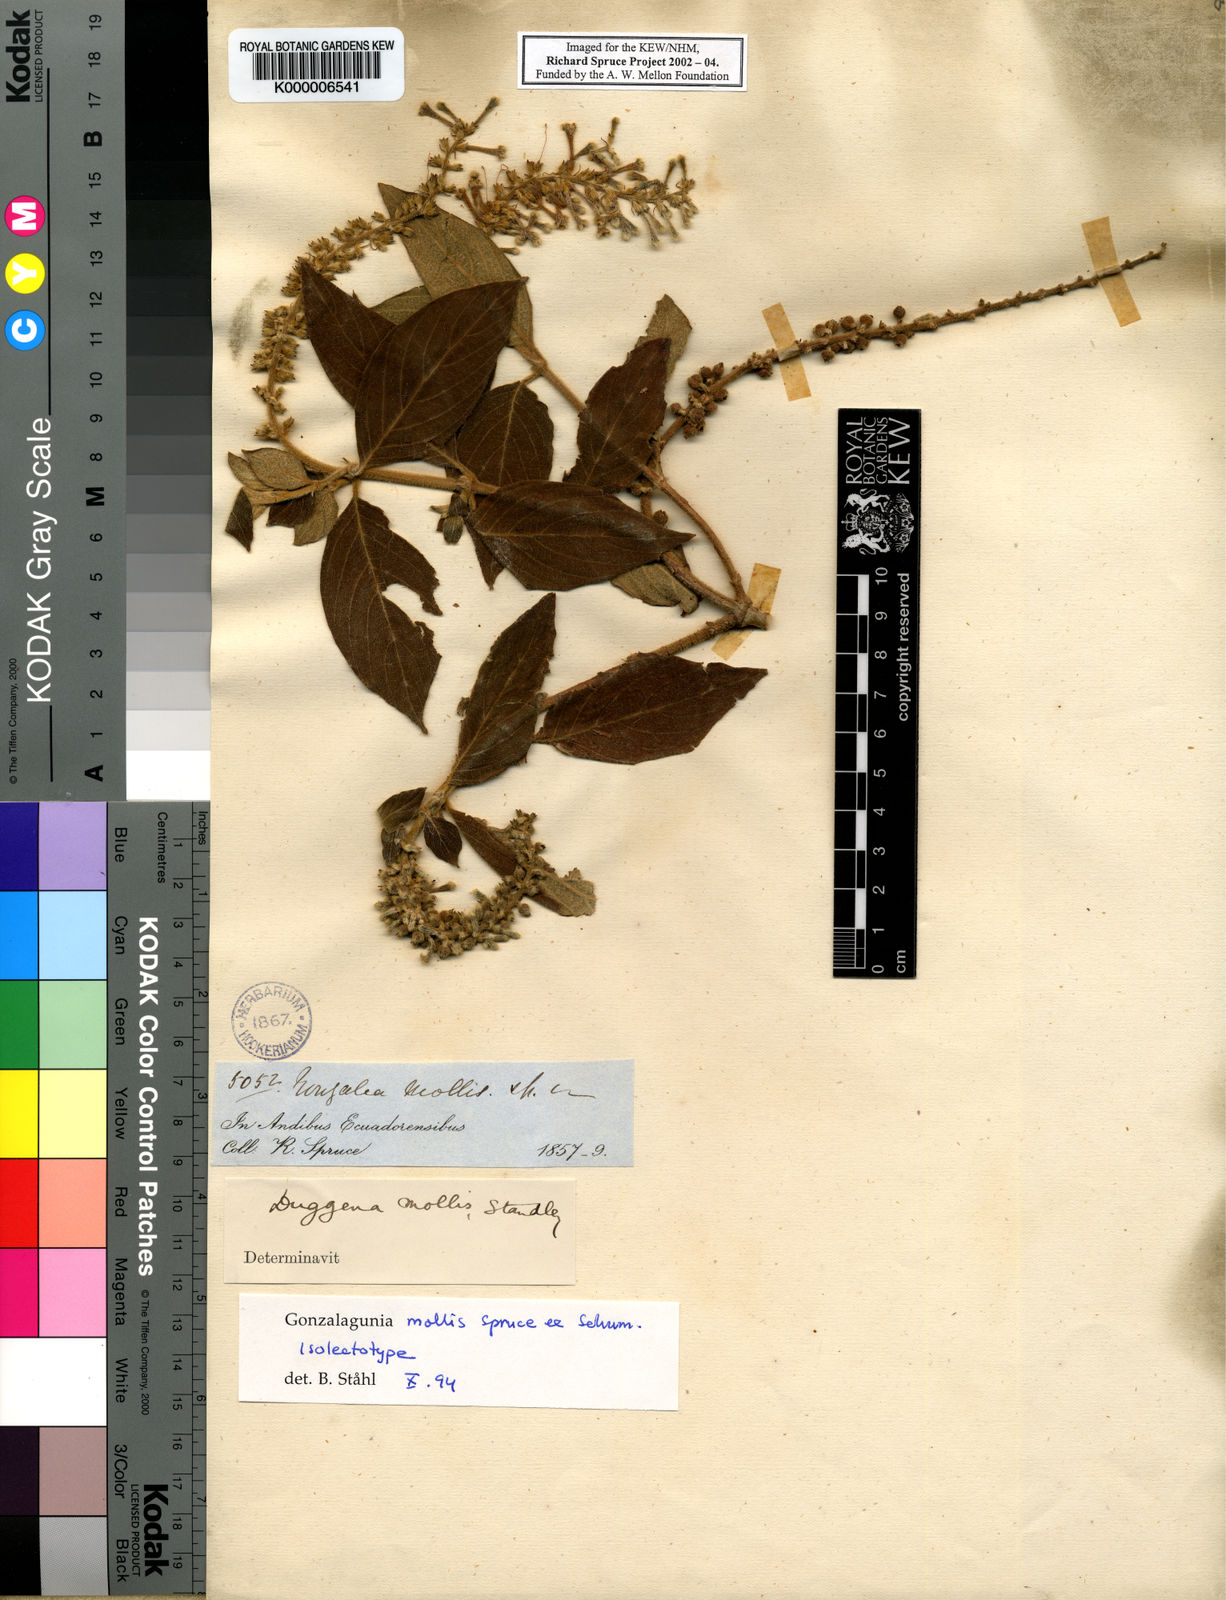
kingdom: Plantae
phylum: Tracheophyta
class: Magnoliopsida
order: Gentianales
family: Rubiaceae
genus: Gonzalagunia
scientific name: Gonzalagunia mollis
